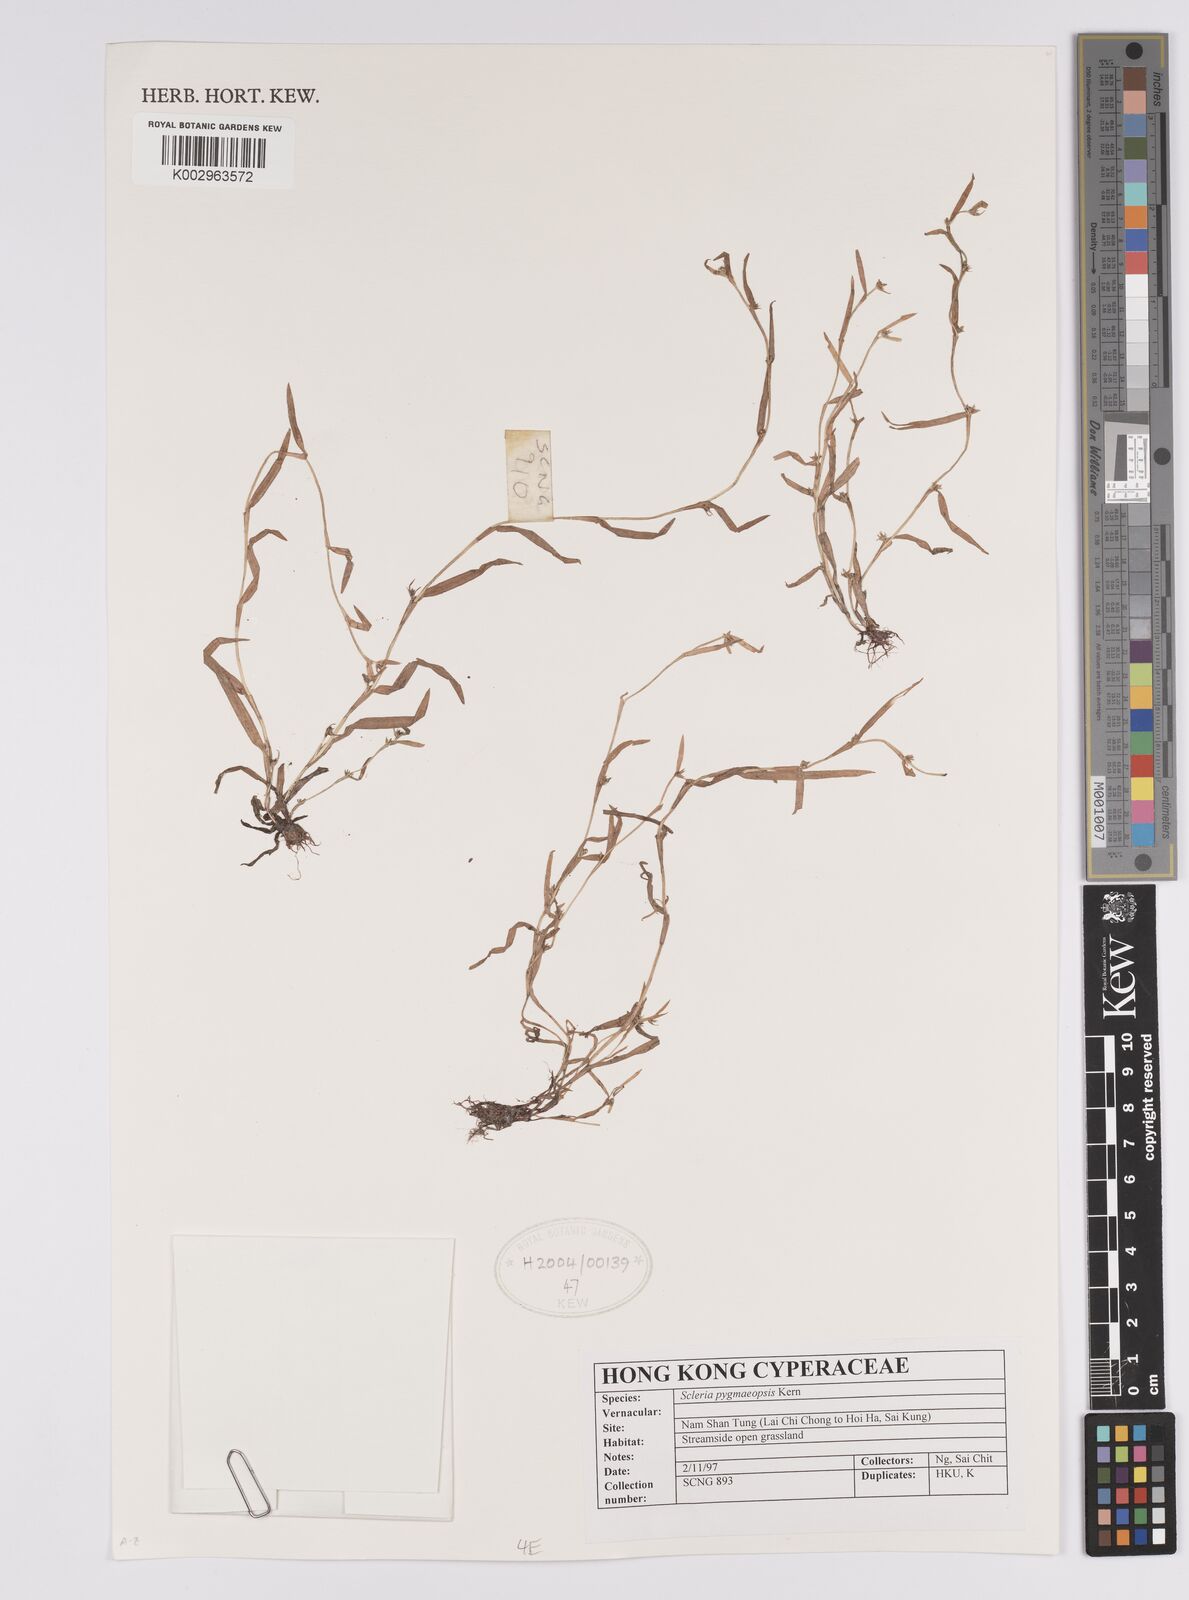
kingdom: Plantae
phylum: Tracheophyta
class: Liliopsida
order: Poales
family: Cyperaceae
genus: Diplacrum
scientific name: Diplacrum pygmaeopsis
